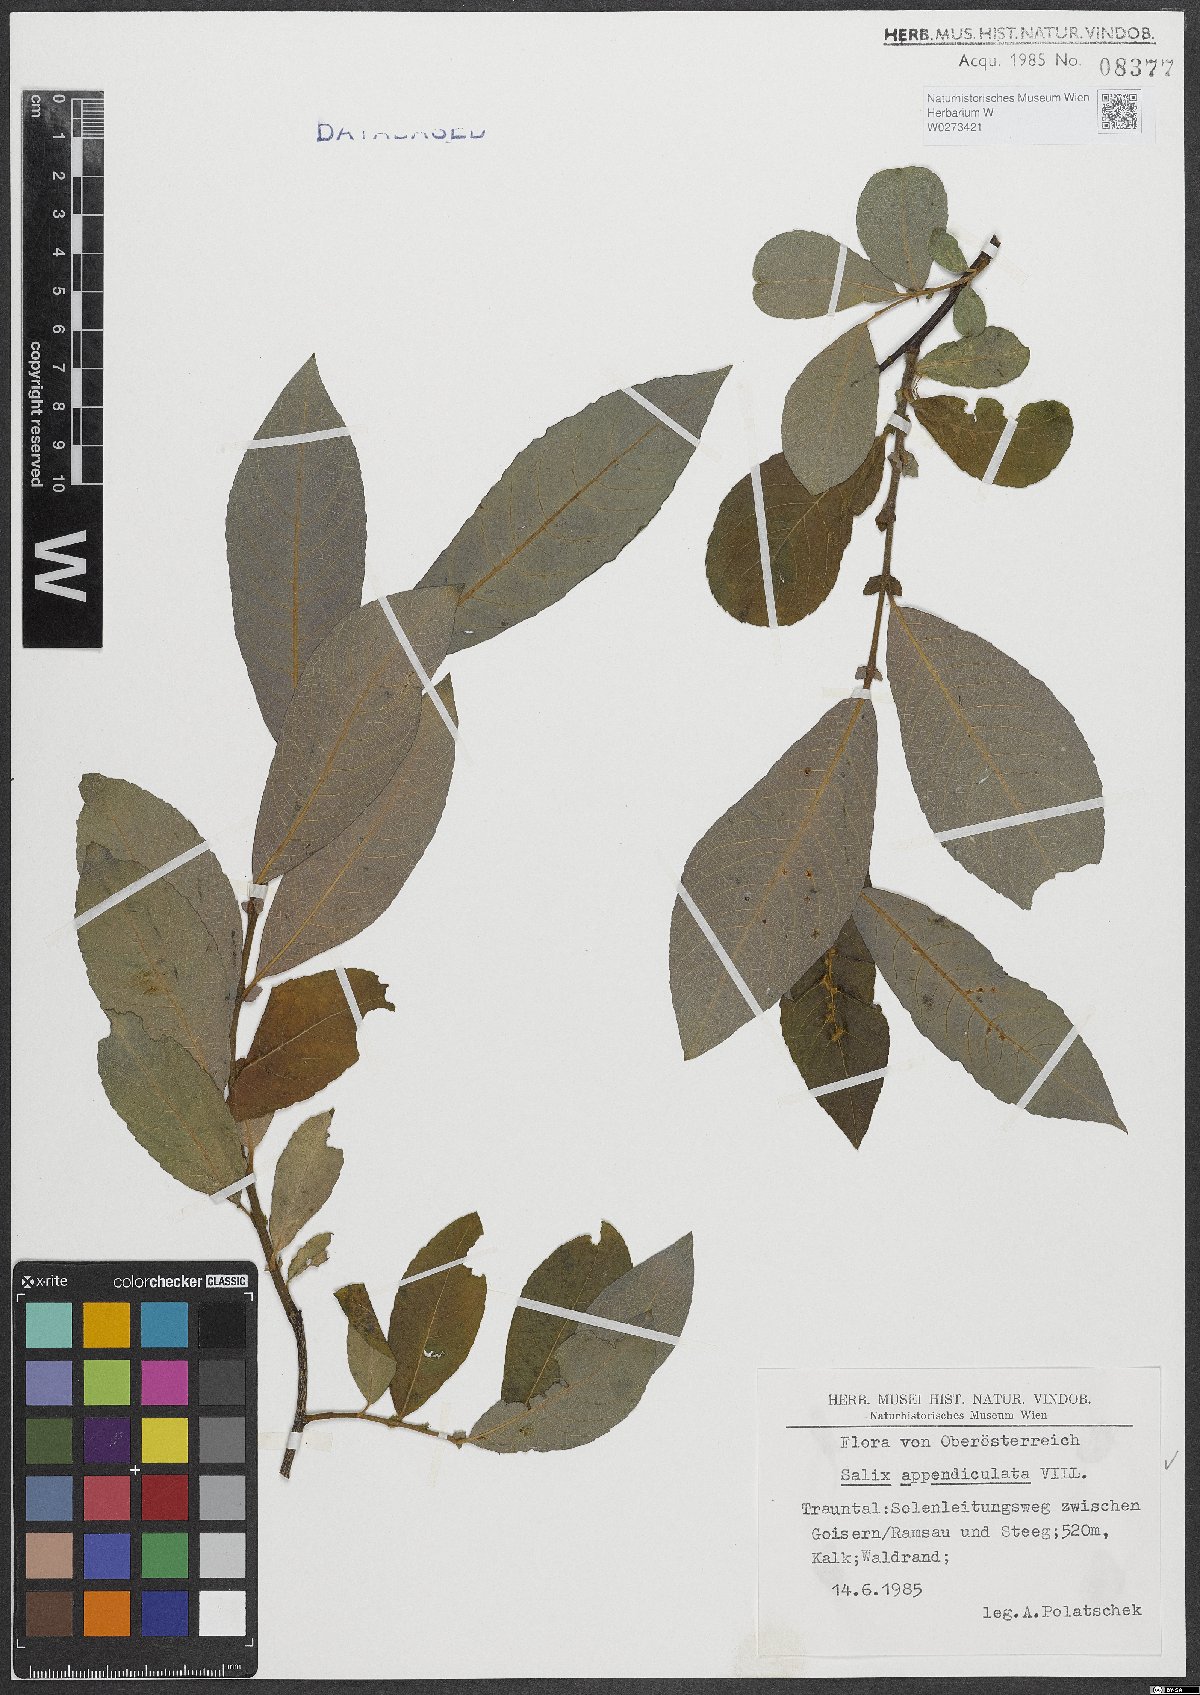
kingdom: Plantae
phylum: Tracheophyta
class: Magnoliopsida
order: Malpighiales
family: Salicaceae
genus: Salix
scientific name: Salix appendiculata
